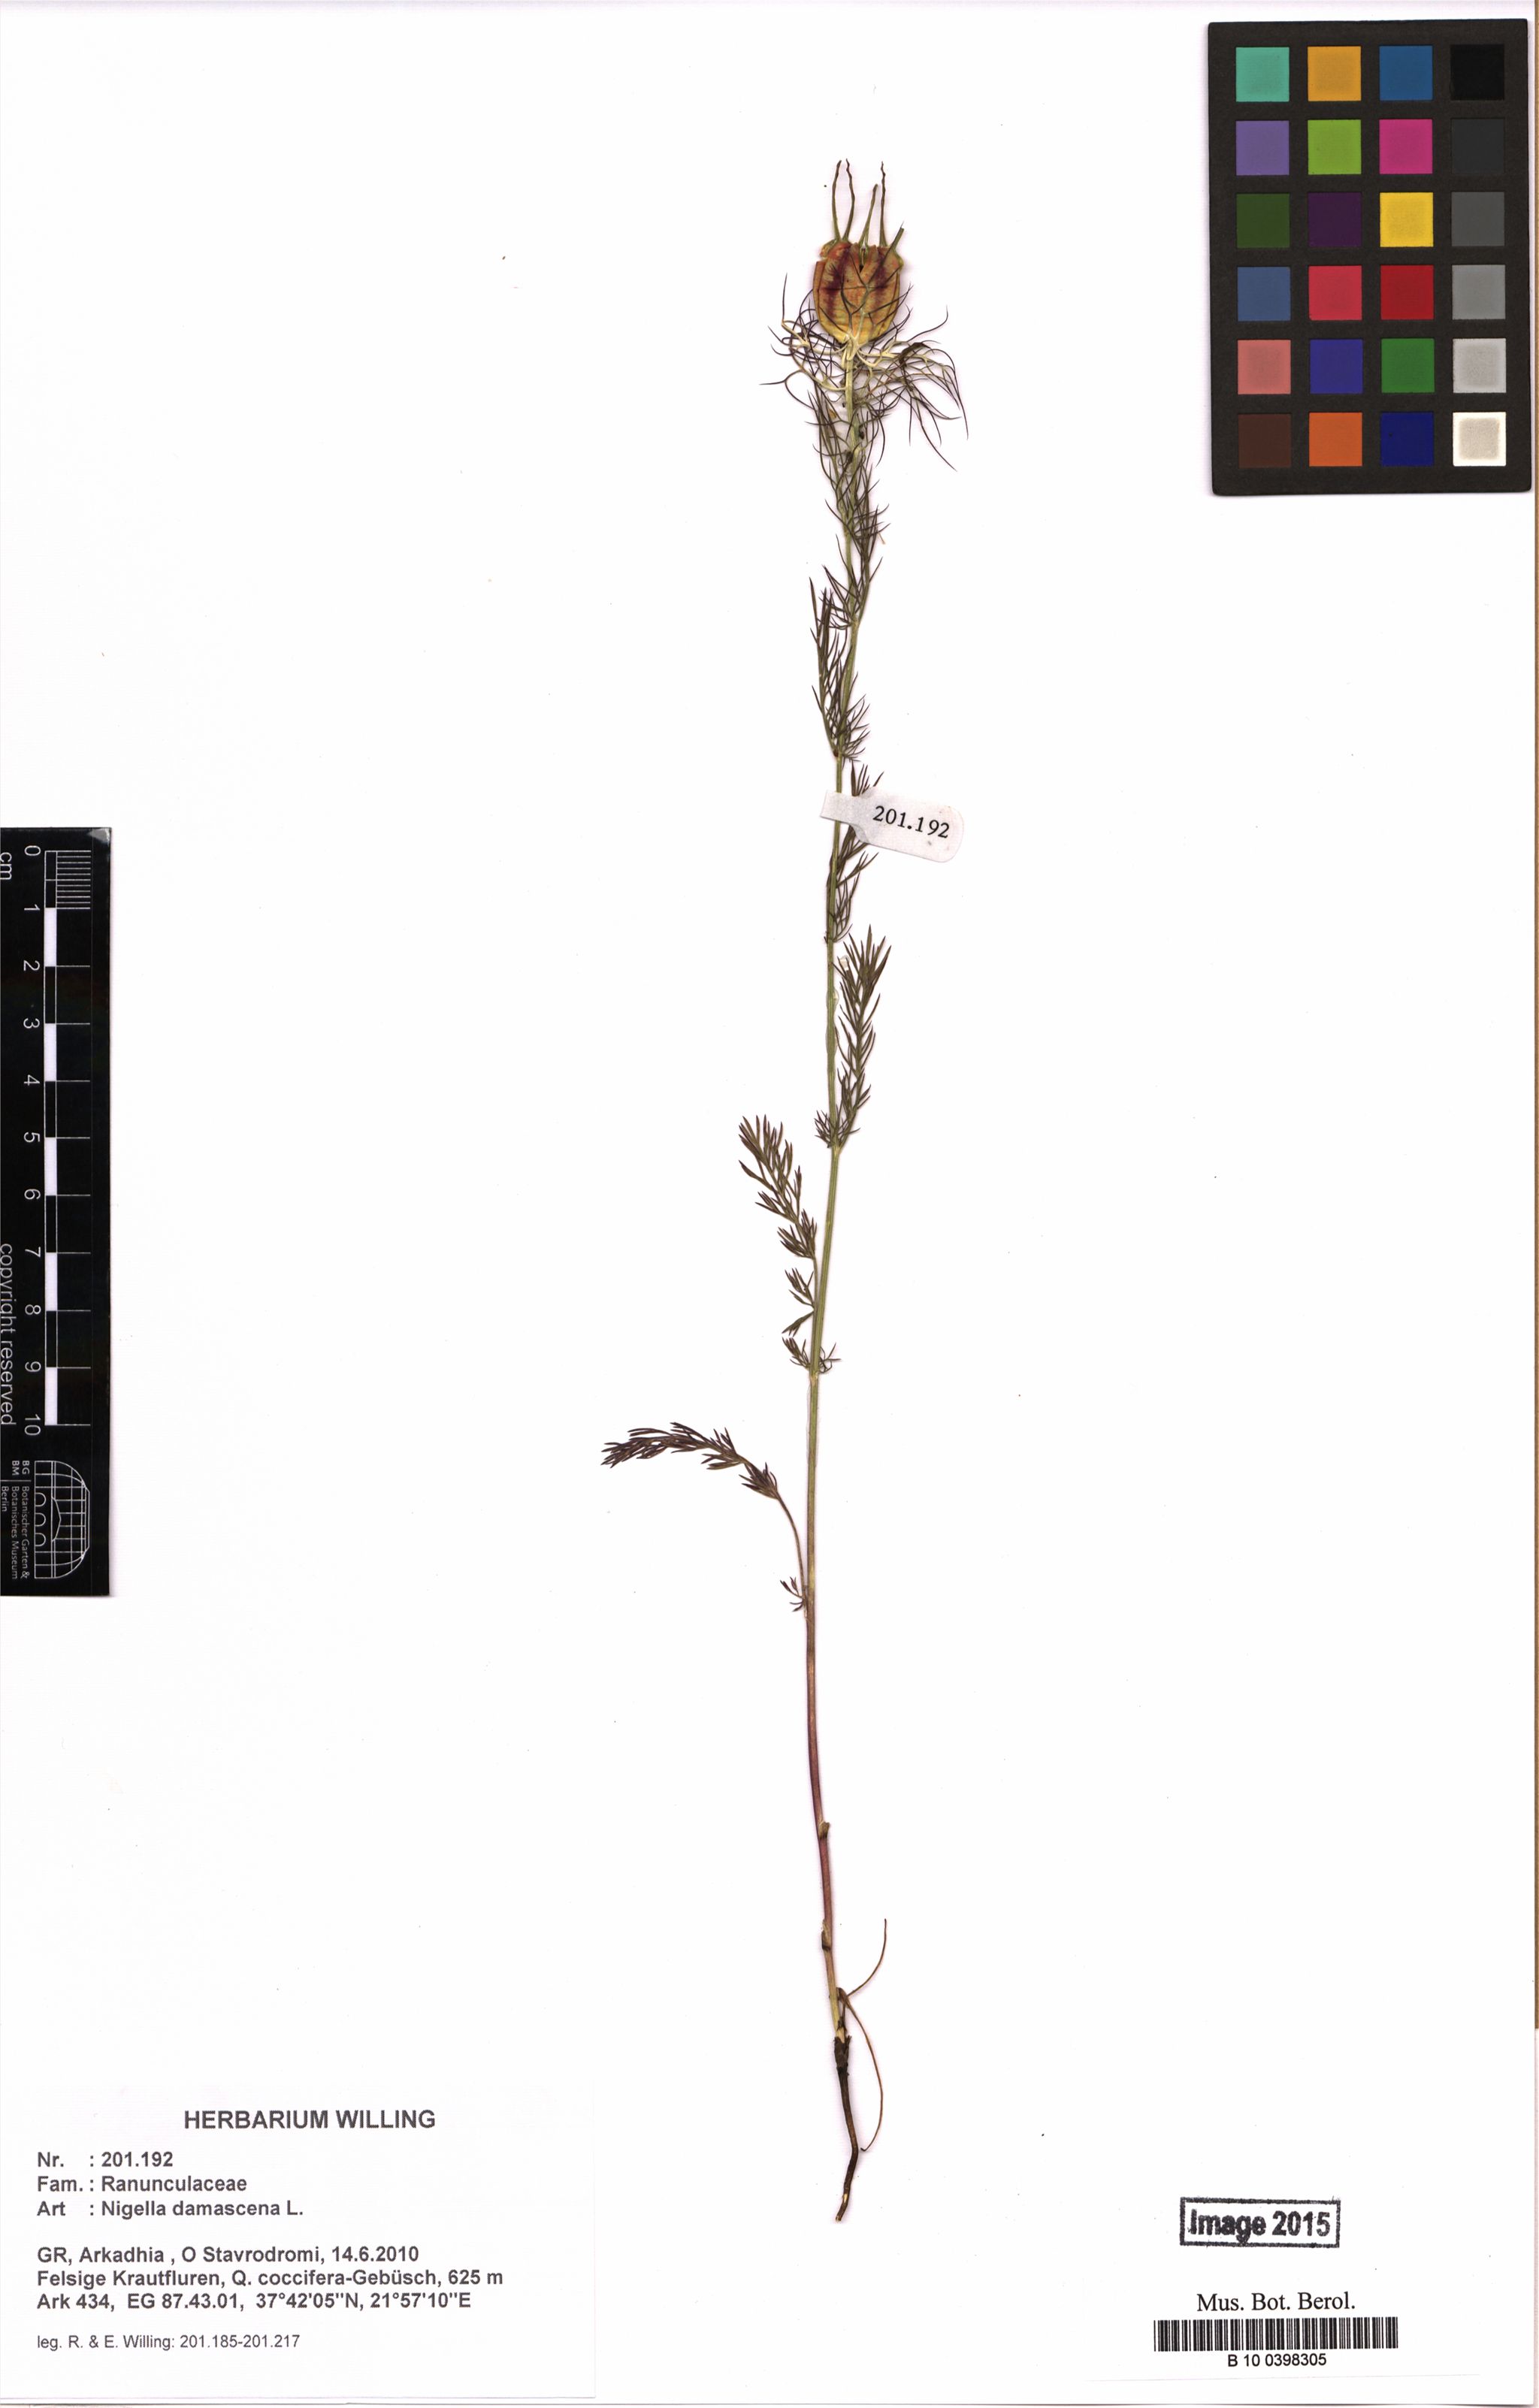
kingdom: Plantae
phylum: Tracheophyta
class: Magnoliopsida
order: Ranunculales
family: Ranunculaceae
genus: Nigella
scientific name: Nigella damascena
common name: Love-in-a-mist
